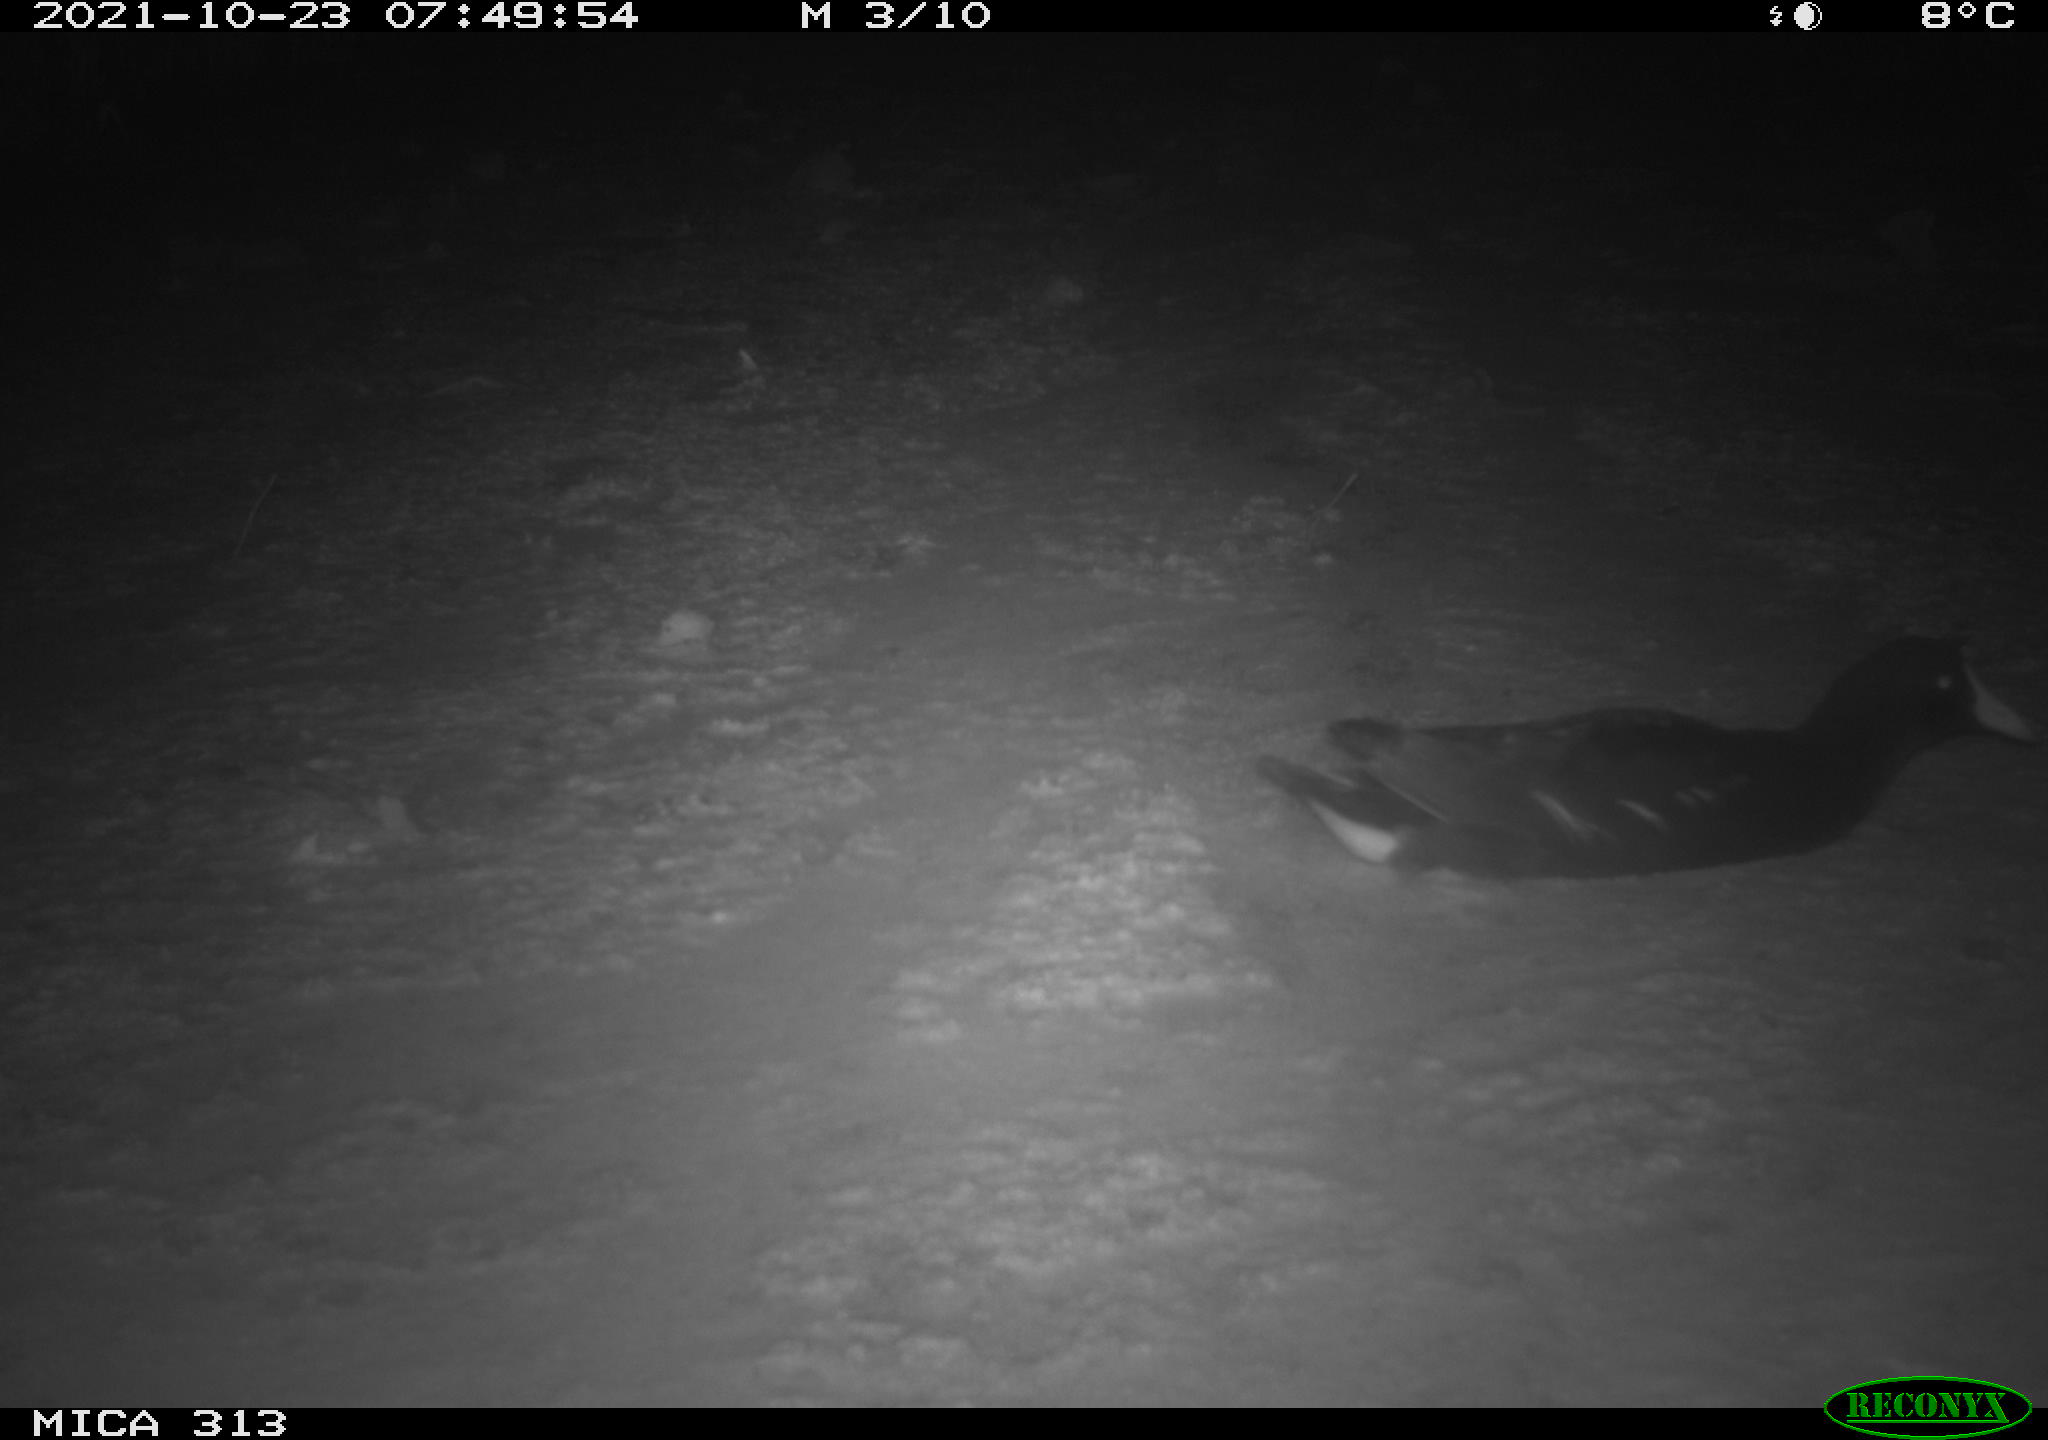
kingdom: Animalia
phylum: Chordata
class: Aves
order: Gruiformes
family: Rallidae
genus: Gallinula
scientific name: Gallinula chloropus
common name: Common moorhen
